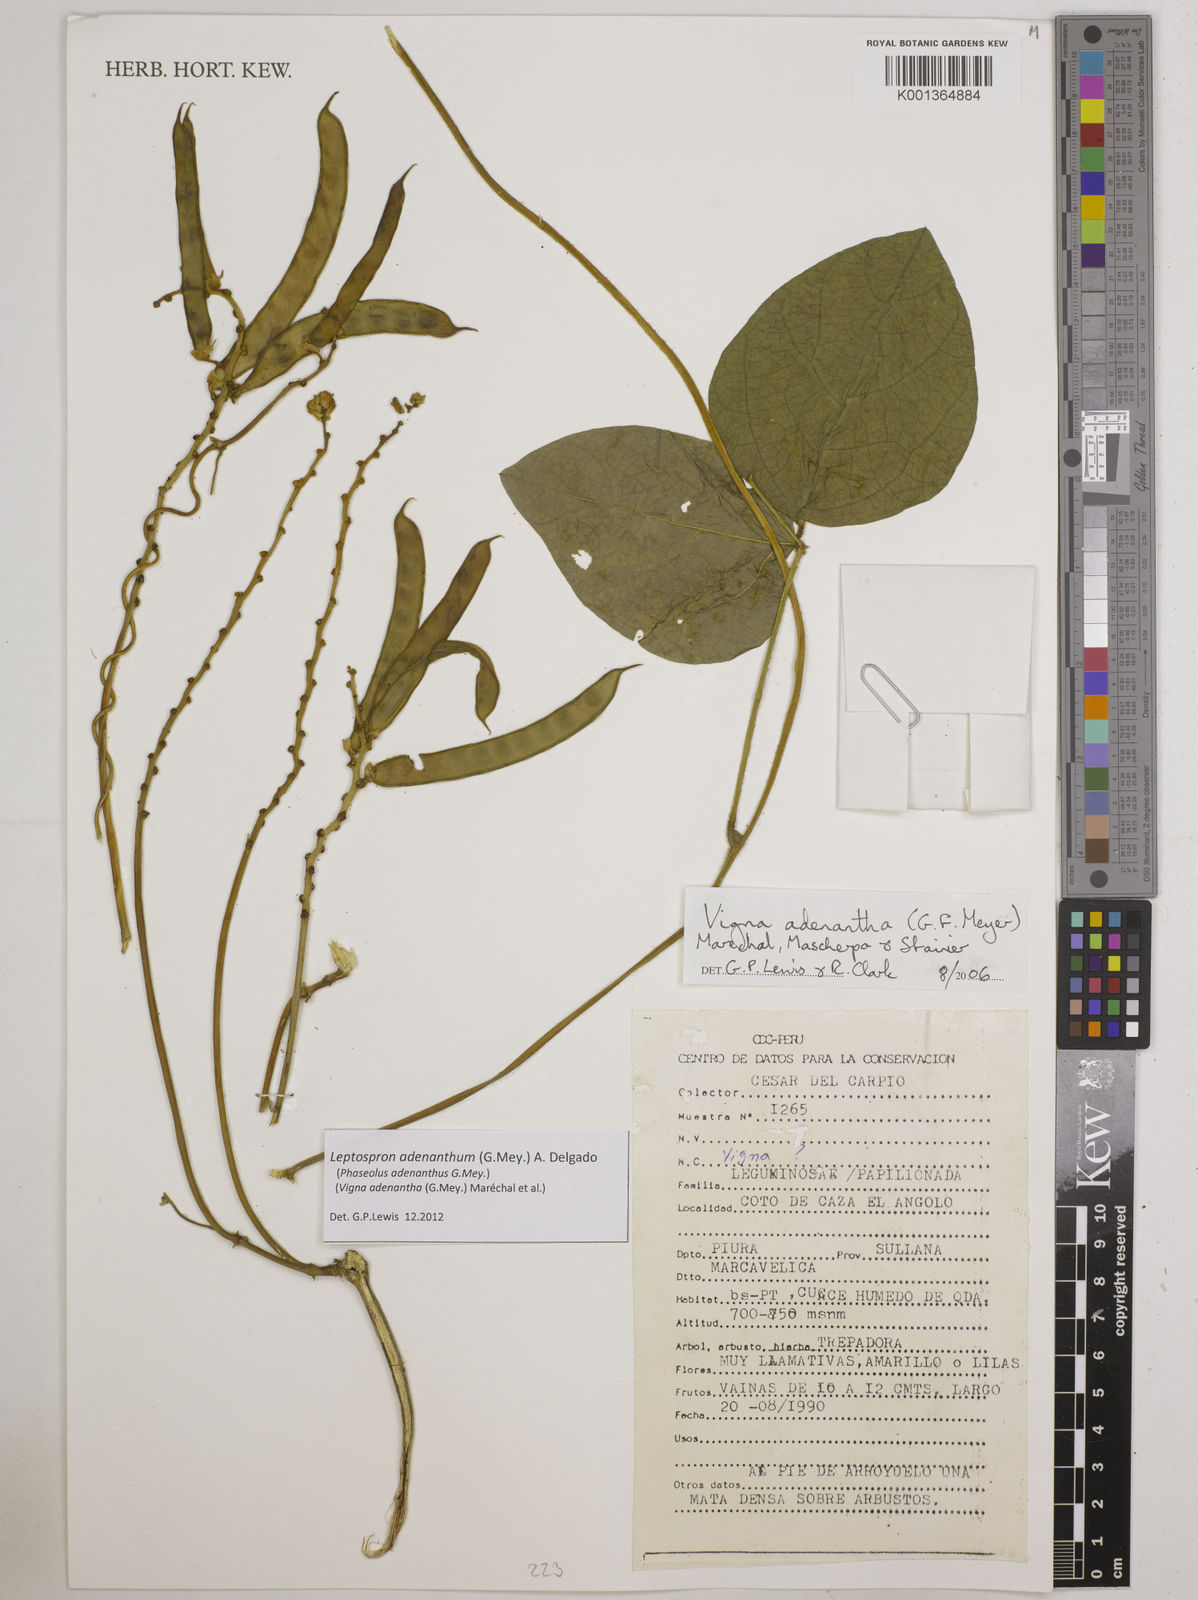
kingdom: Plantae
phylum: Tracheophyta
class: Magnoliopsida
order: Fabales
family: Fabaceae
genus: Leptospron
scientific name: Leptospron adenanthum
